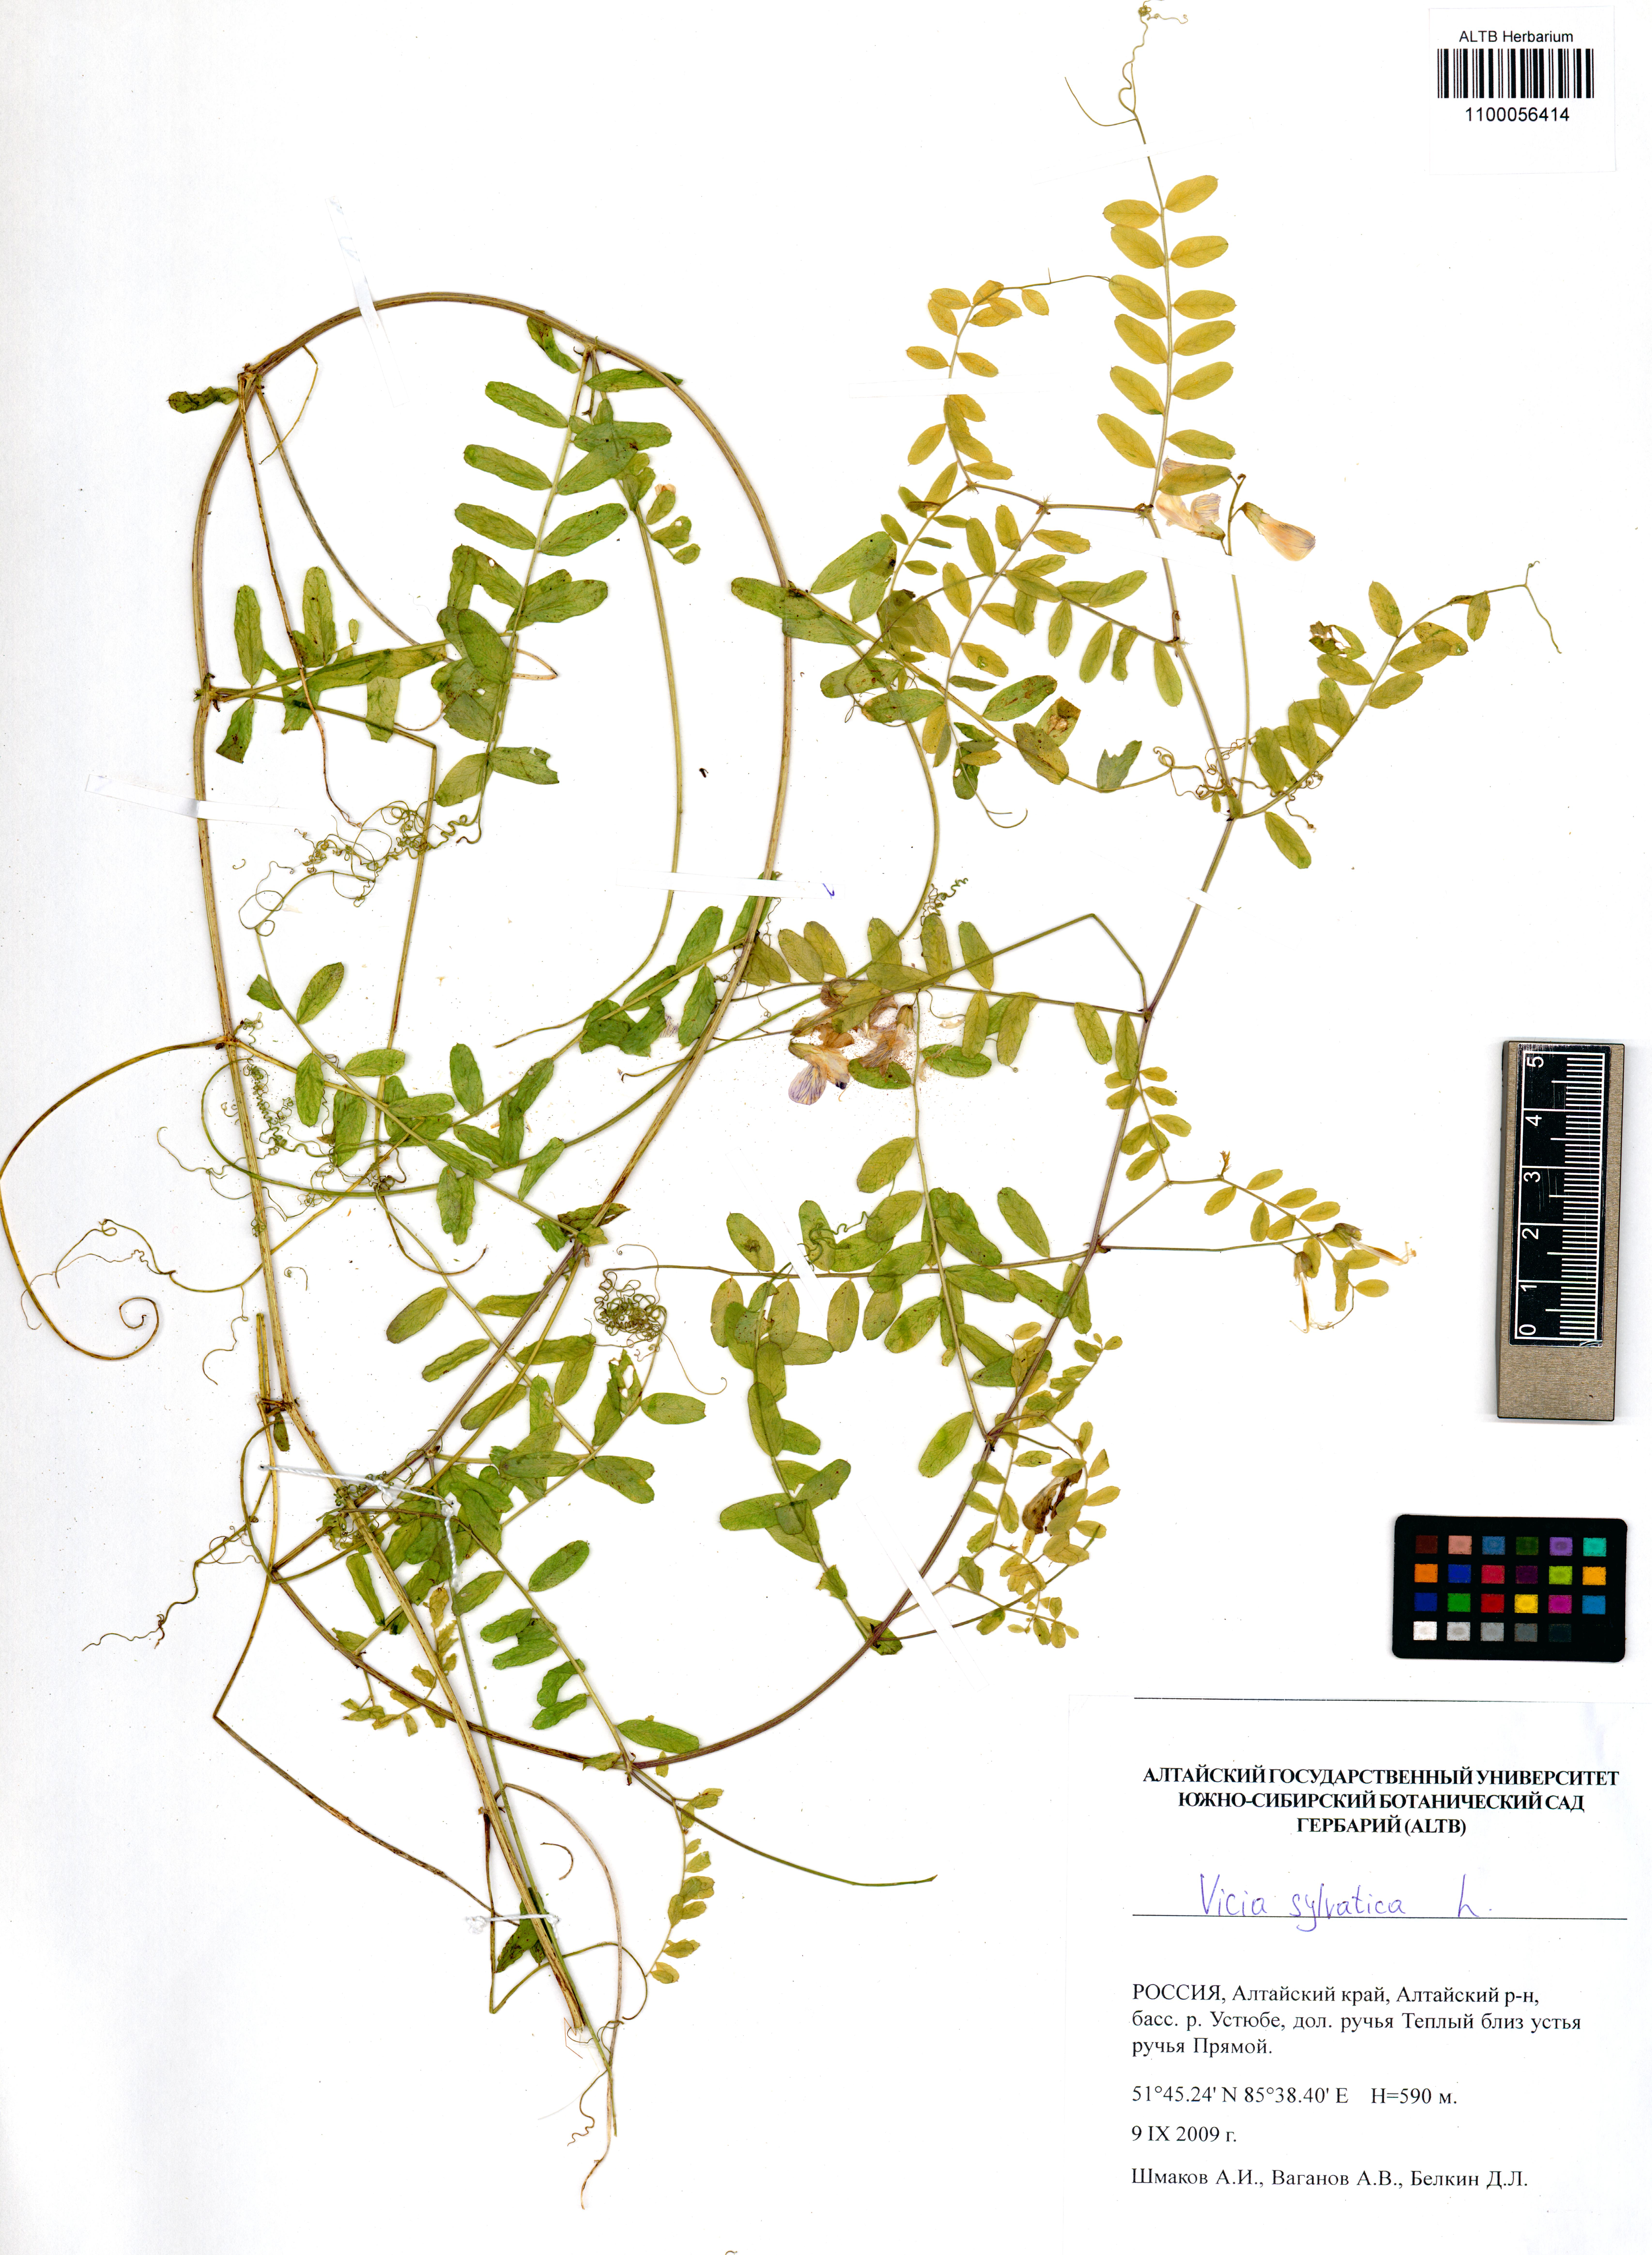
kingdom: Plantae
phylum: Tracheophyta
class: Magnoliopsida
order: Fabales
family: Fabaceae
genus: Vicia
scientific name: Vicia sylvatica
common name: Wood vetch
